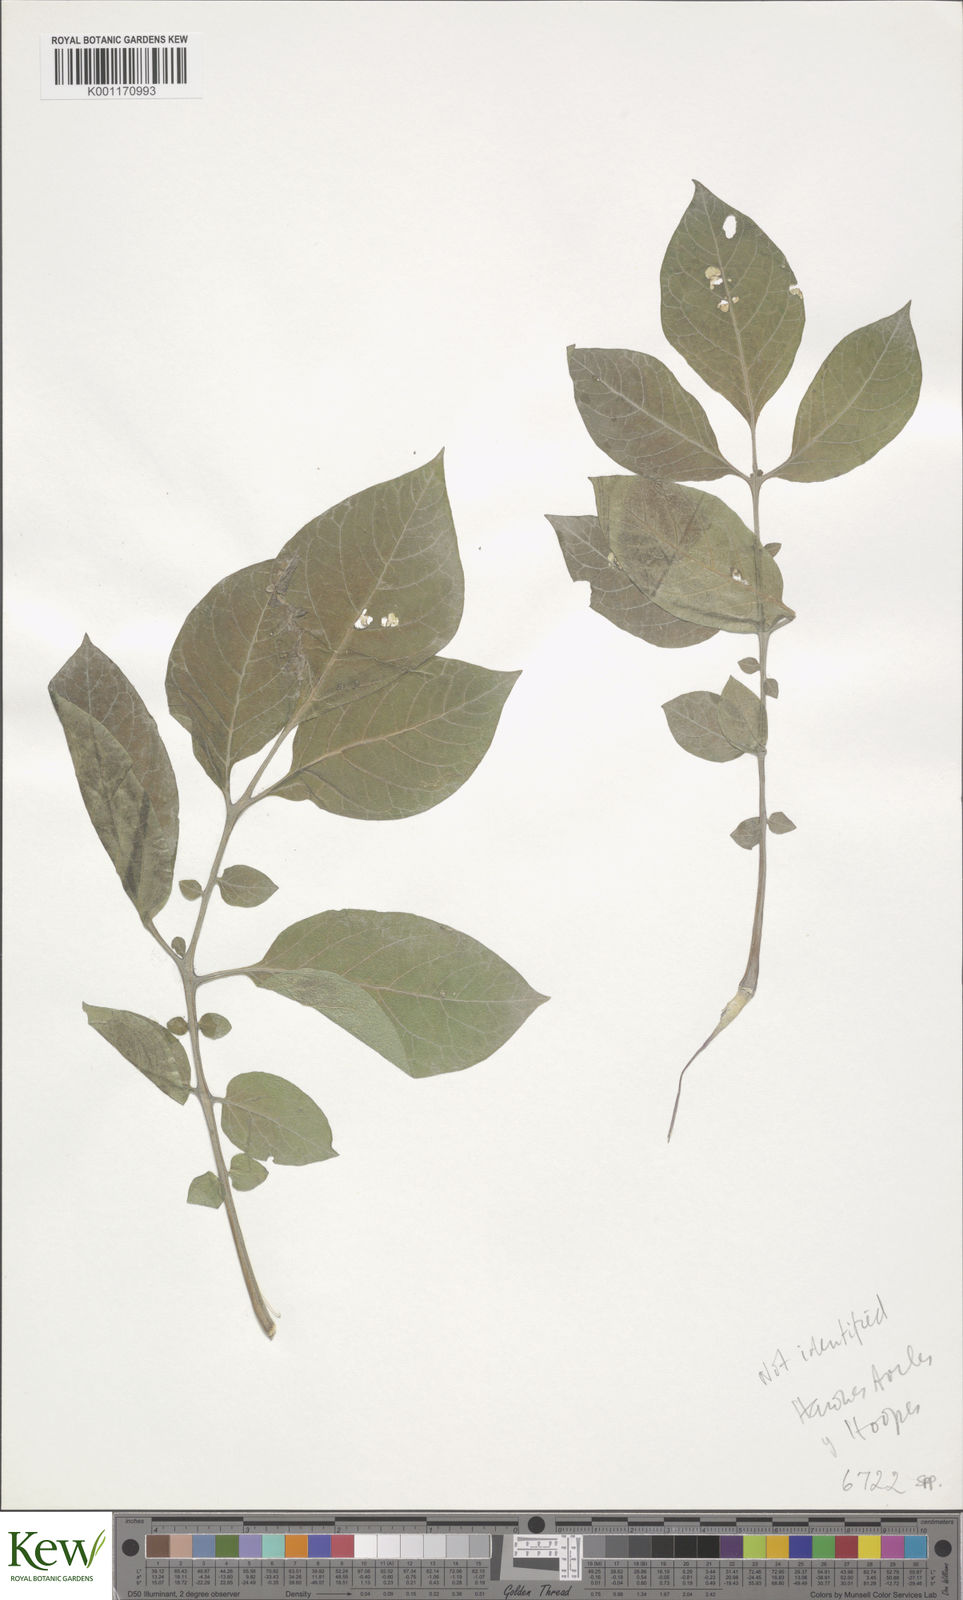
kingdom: Plantae
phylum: Tracheophyta
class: Magnoliopsida
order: Solanales
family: Solanaceae
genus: Solanum
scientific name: Solanum
